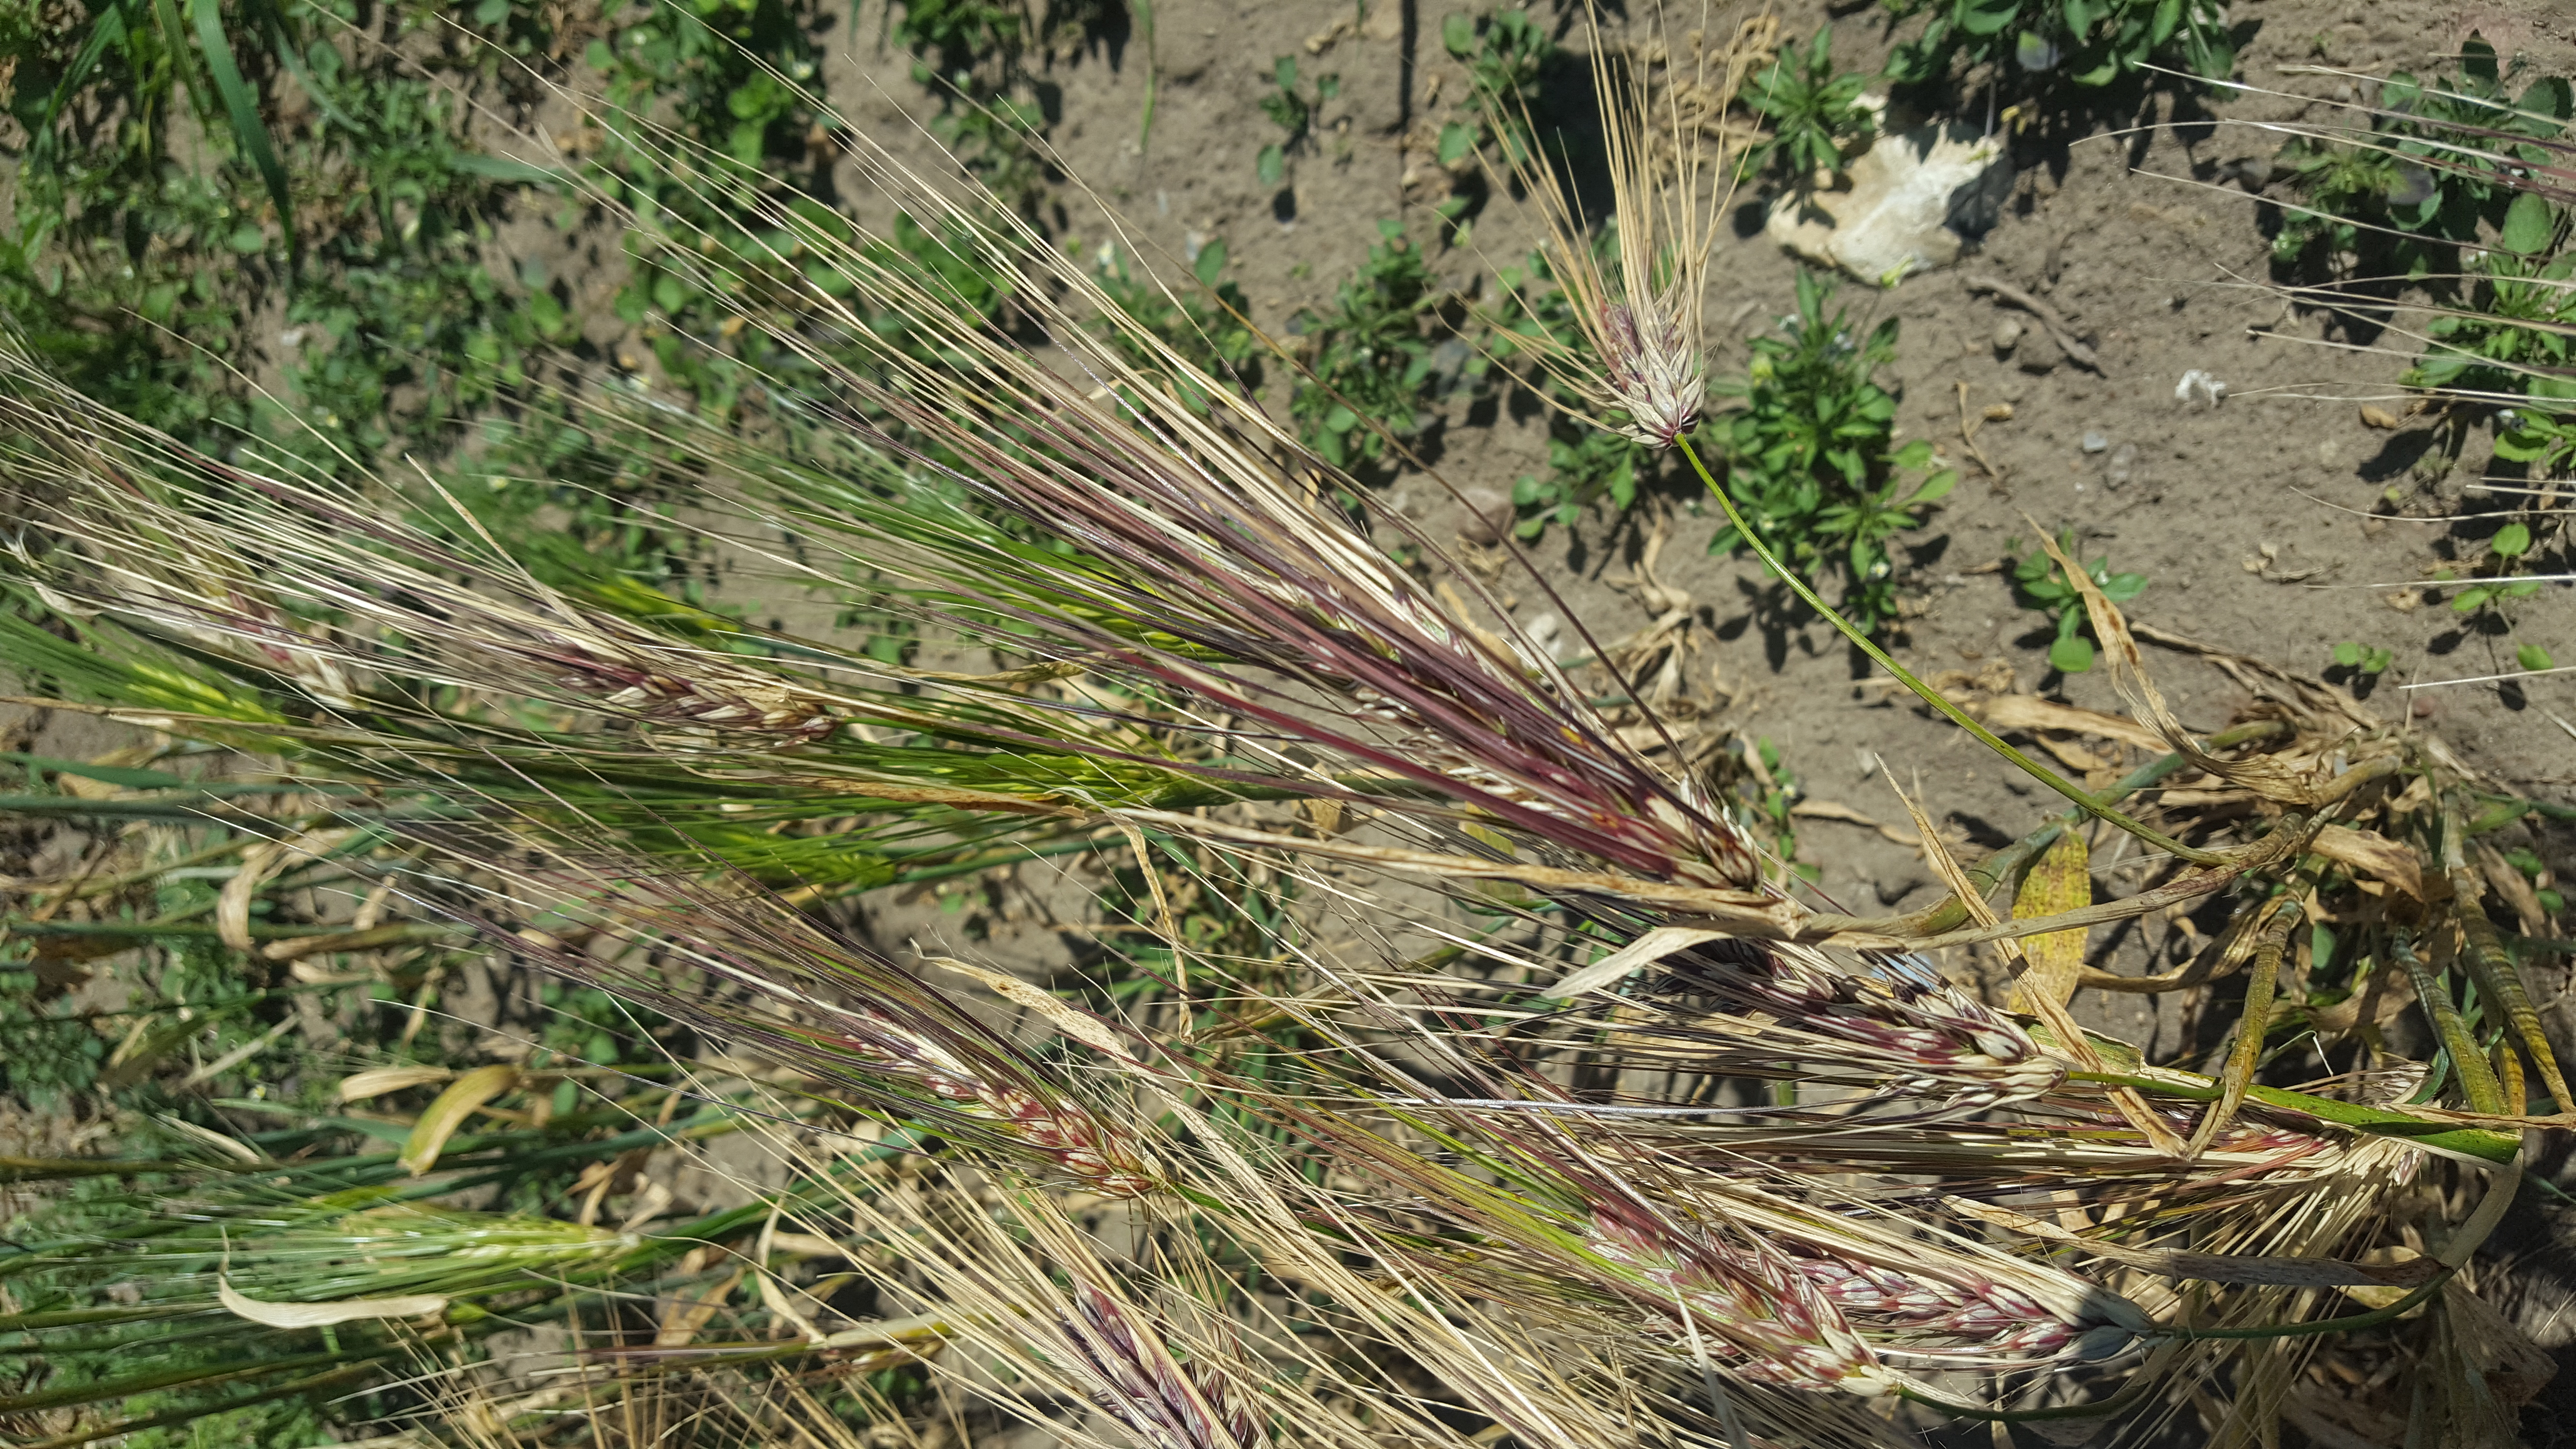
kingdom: Plantae
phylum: Tracheophyta
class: Liliopsida
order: Poales
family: Poaceae
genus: Hordeum
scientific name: Hordeum vulgare
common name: Common barley
